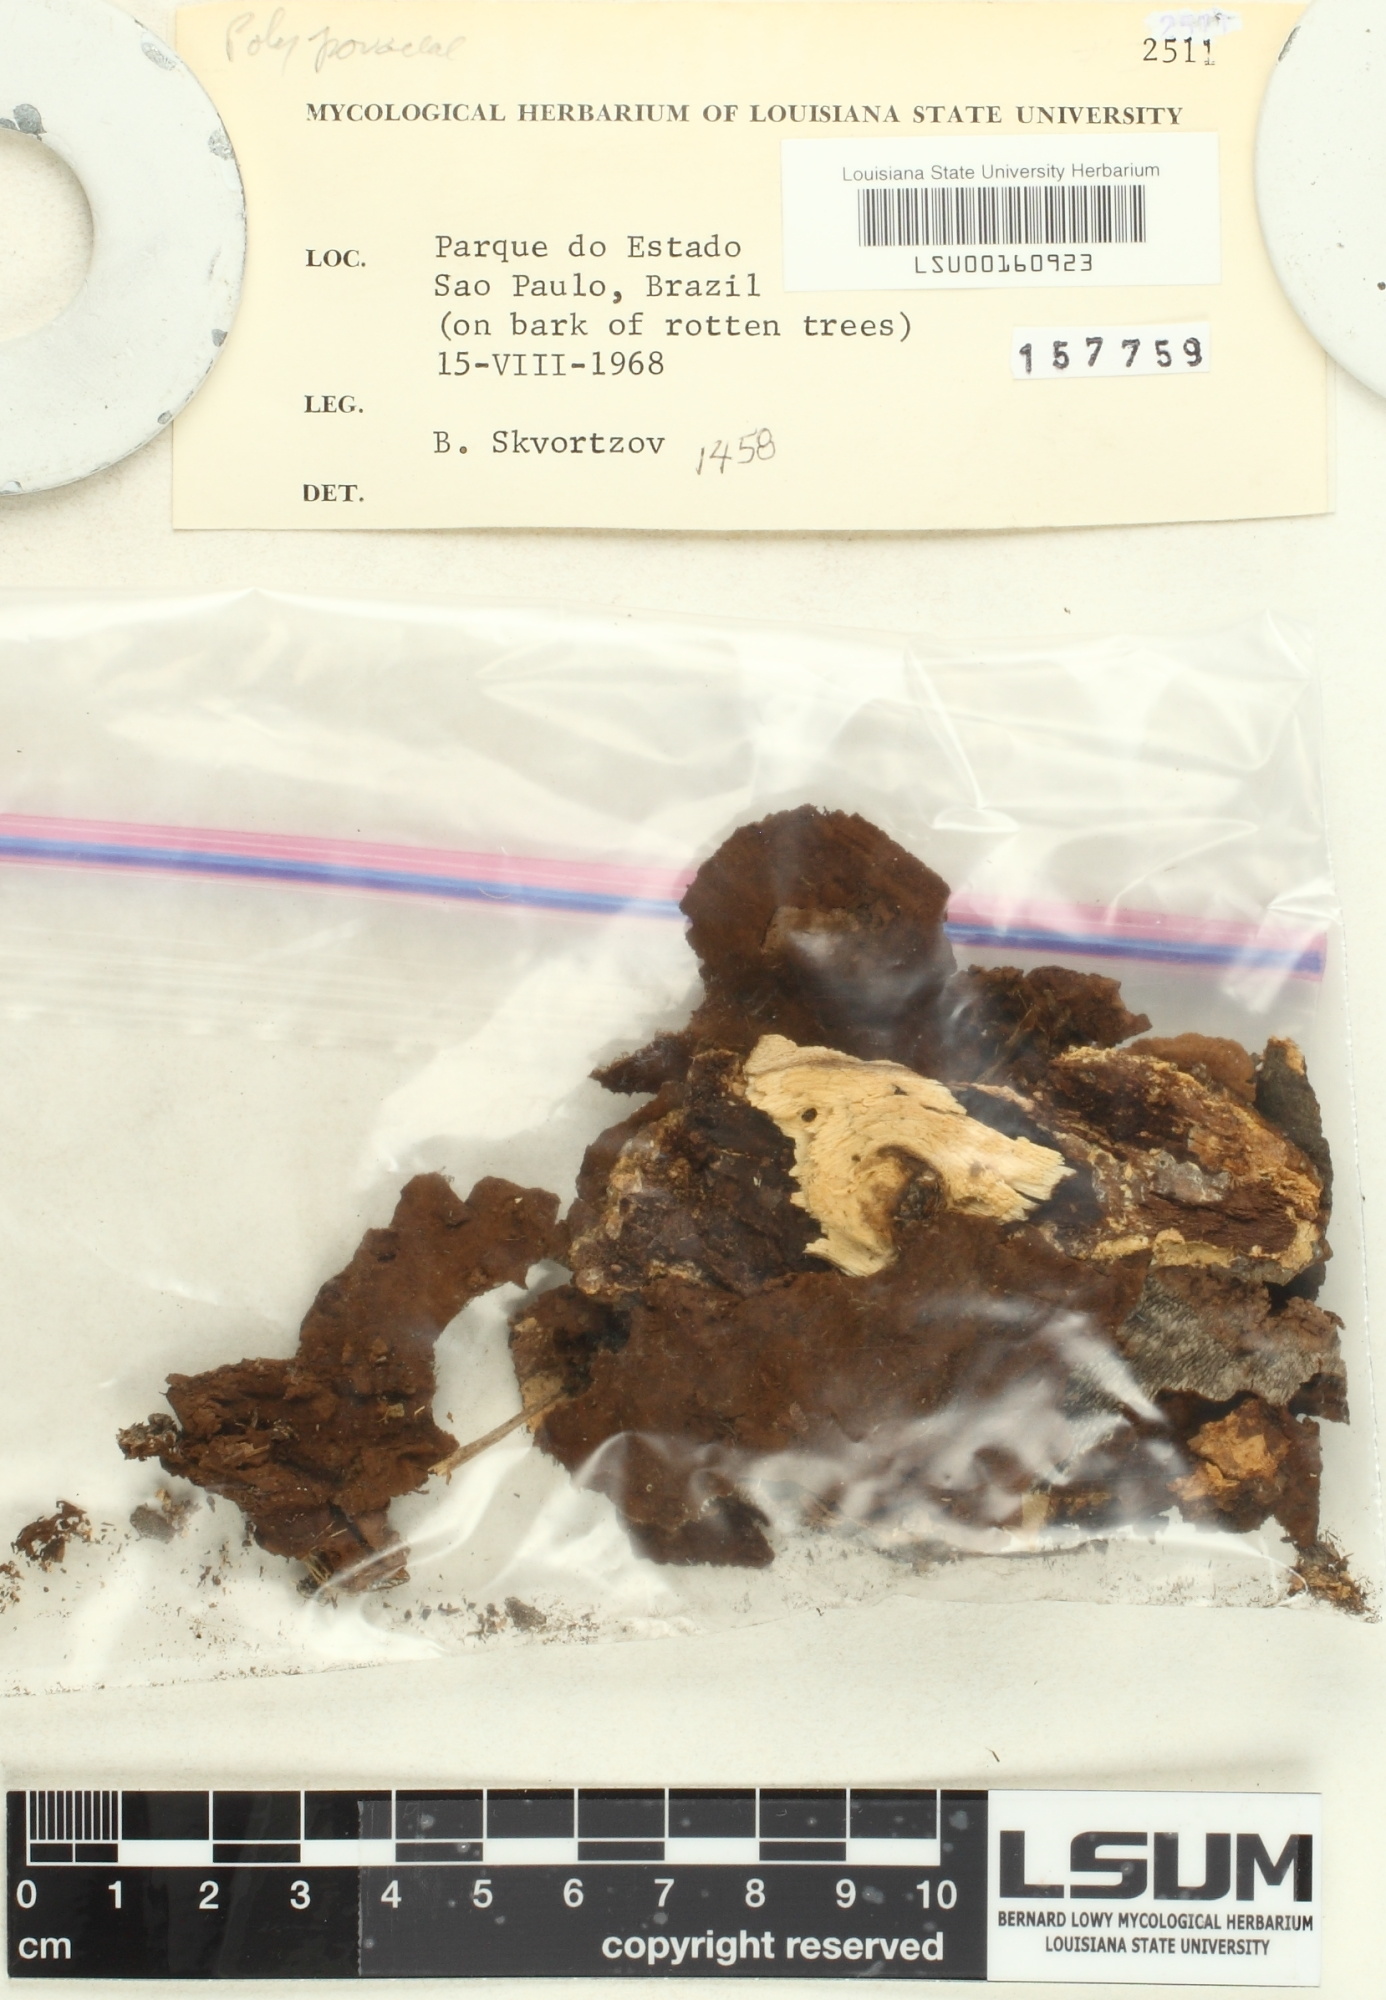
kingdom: Fungi
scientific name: Fungi
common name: Fungi
